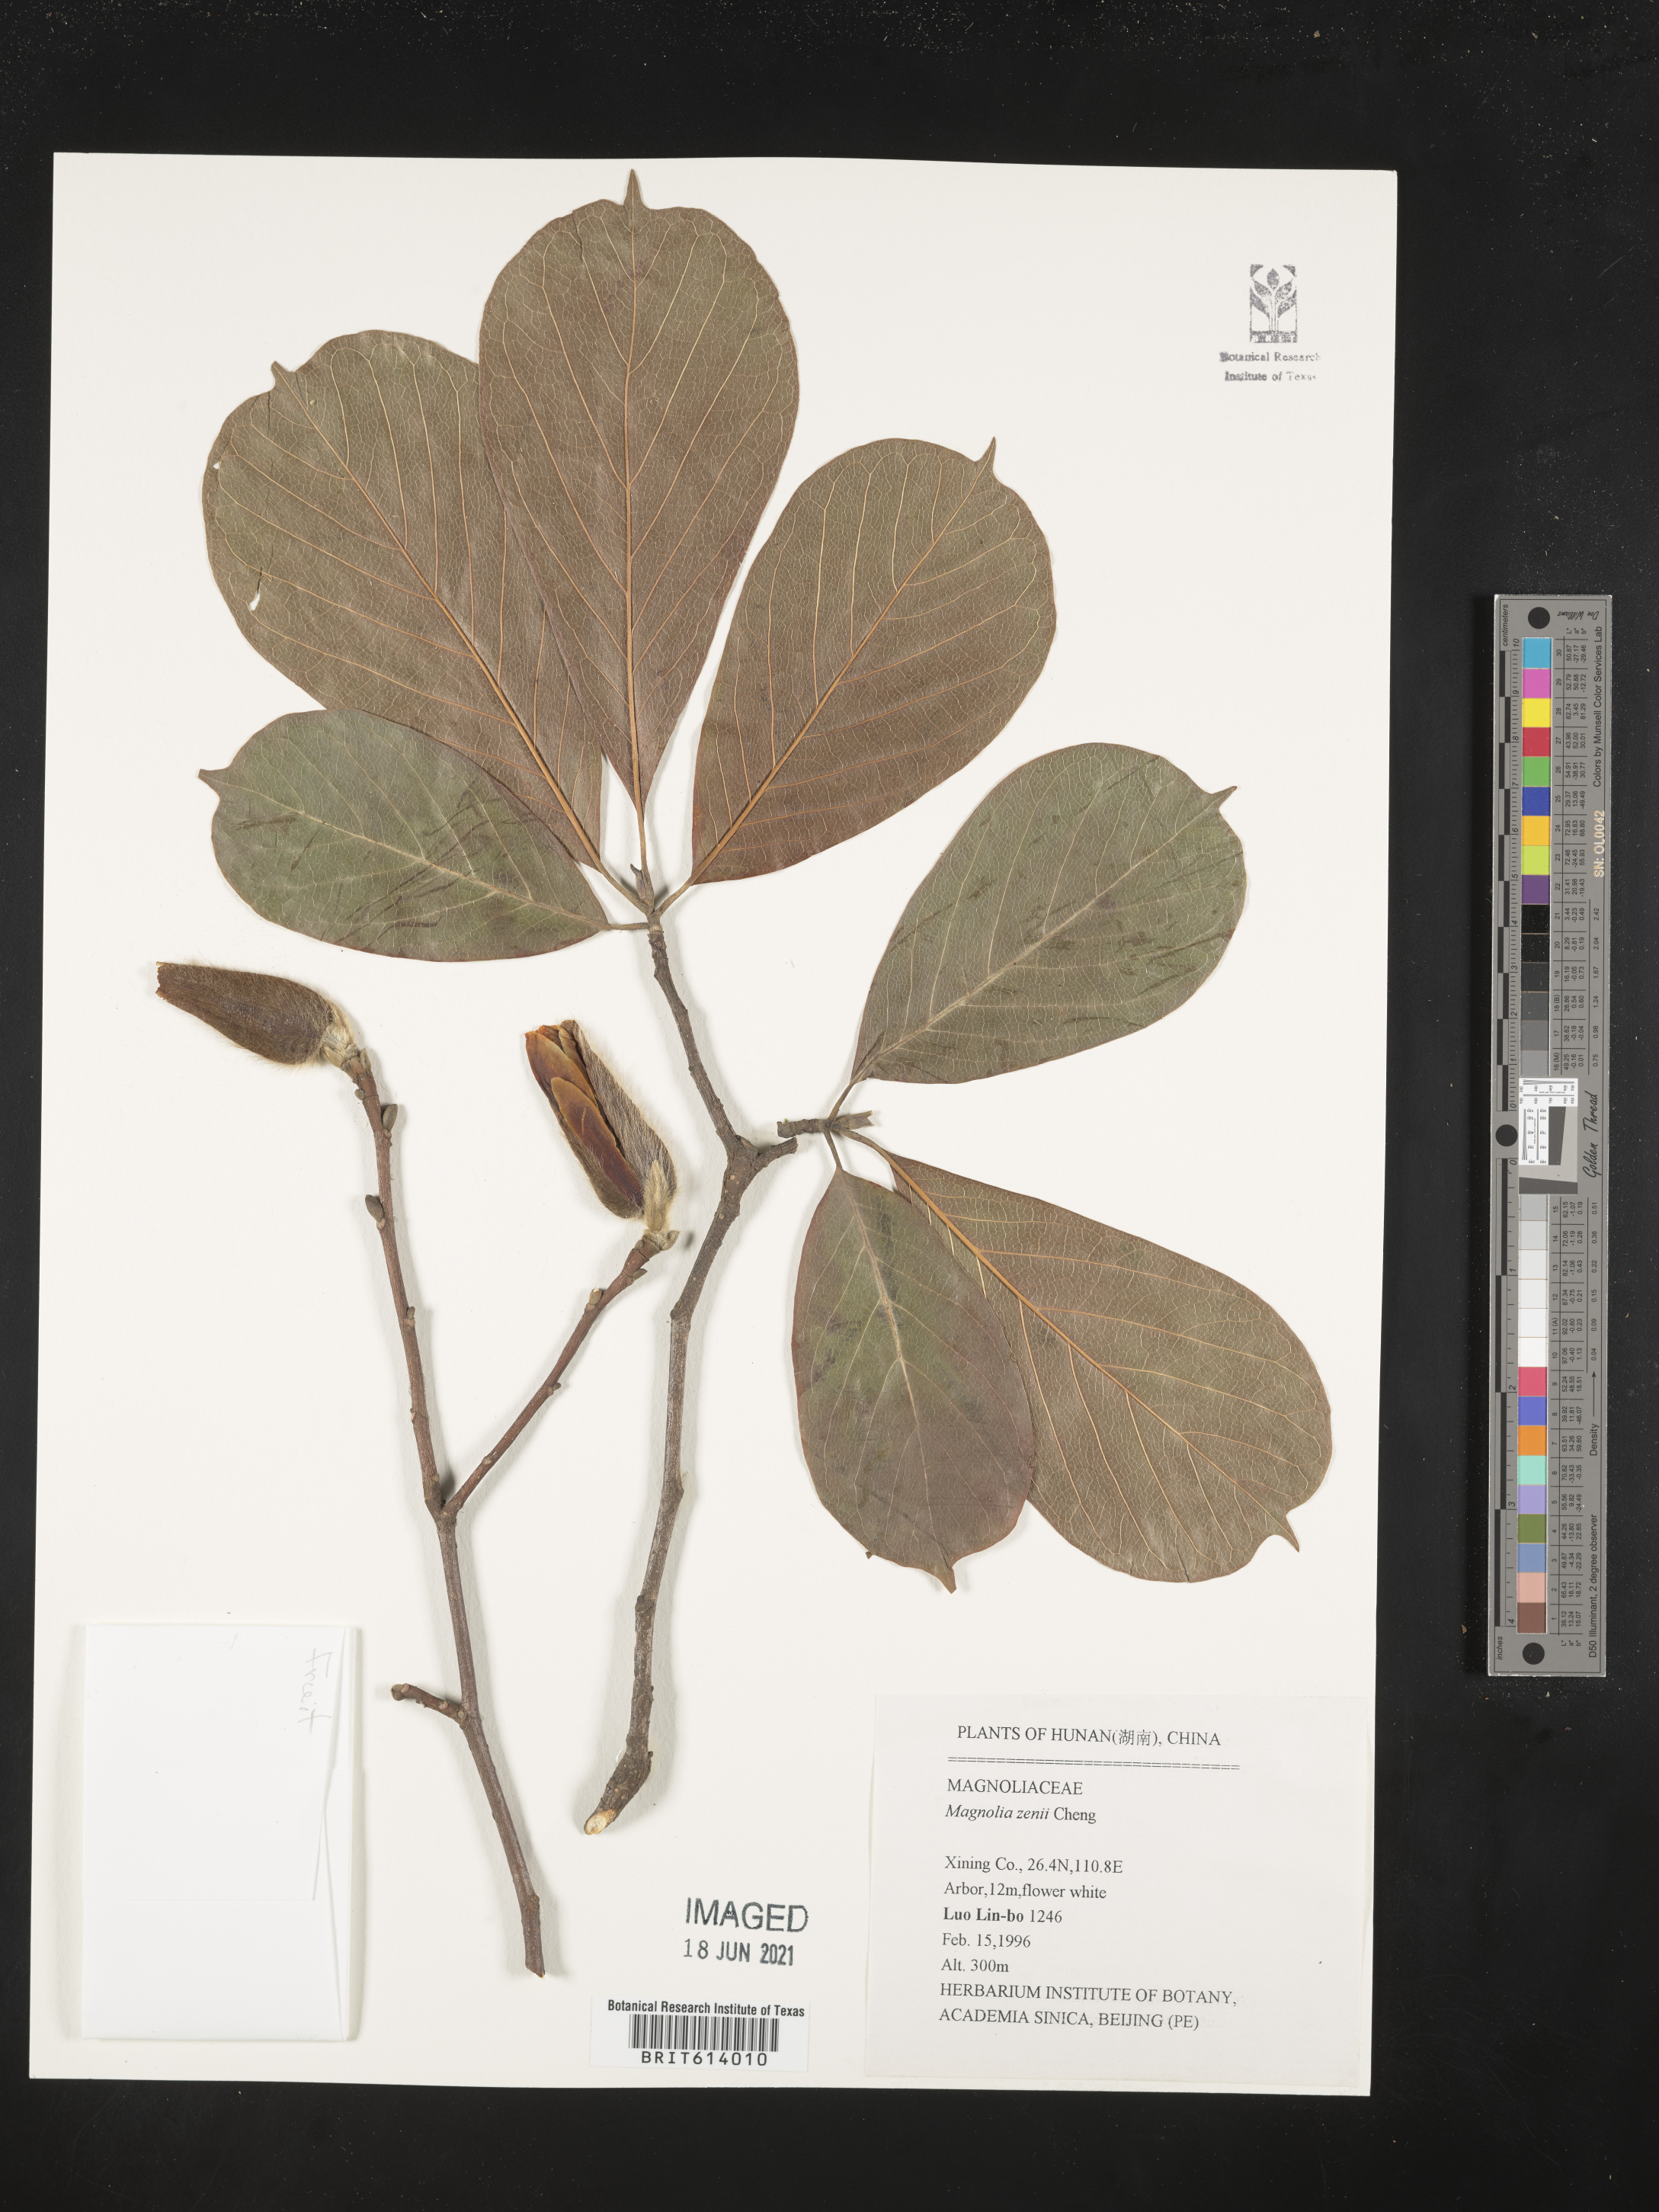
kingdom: Plantae
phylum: Tracheophyta
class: Magnoliopsida
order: Magnoliales
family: Magnoliaceae
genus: Magnolia
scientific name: Magnolia zenii
